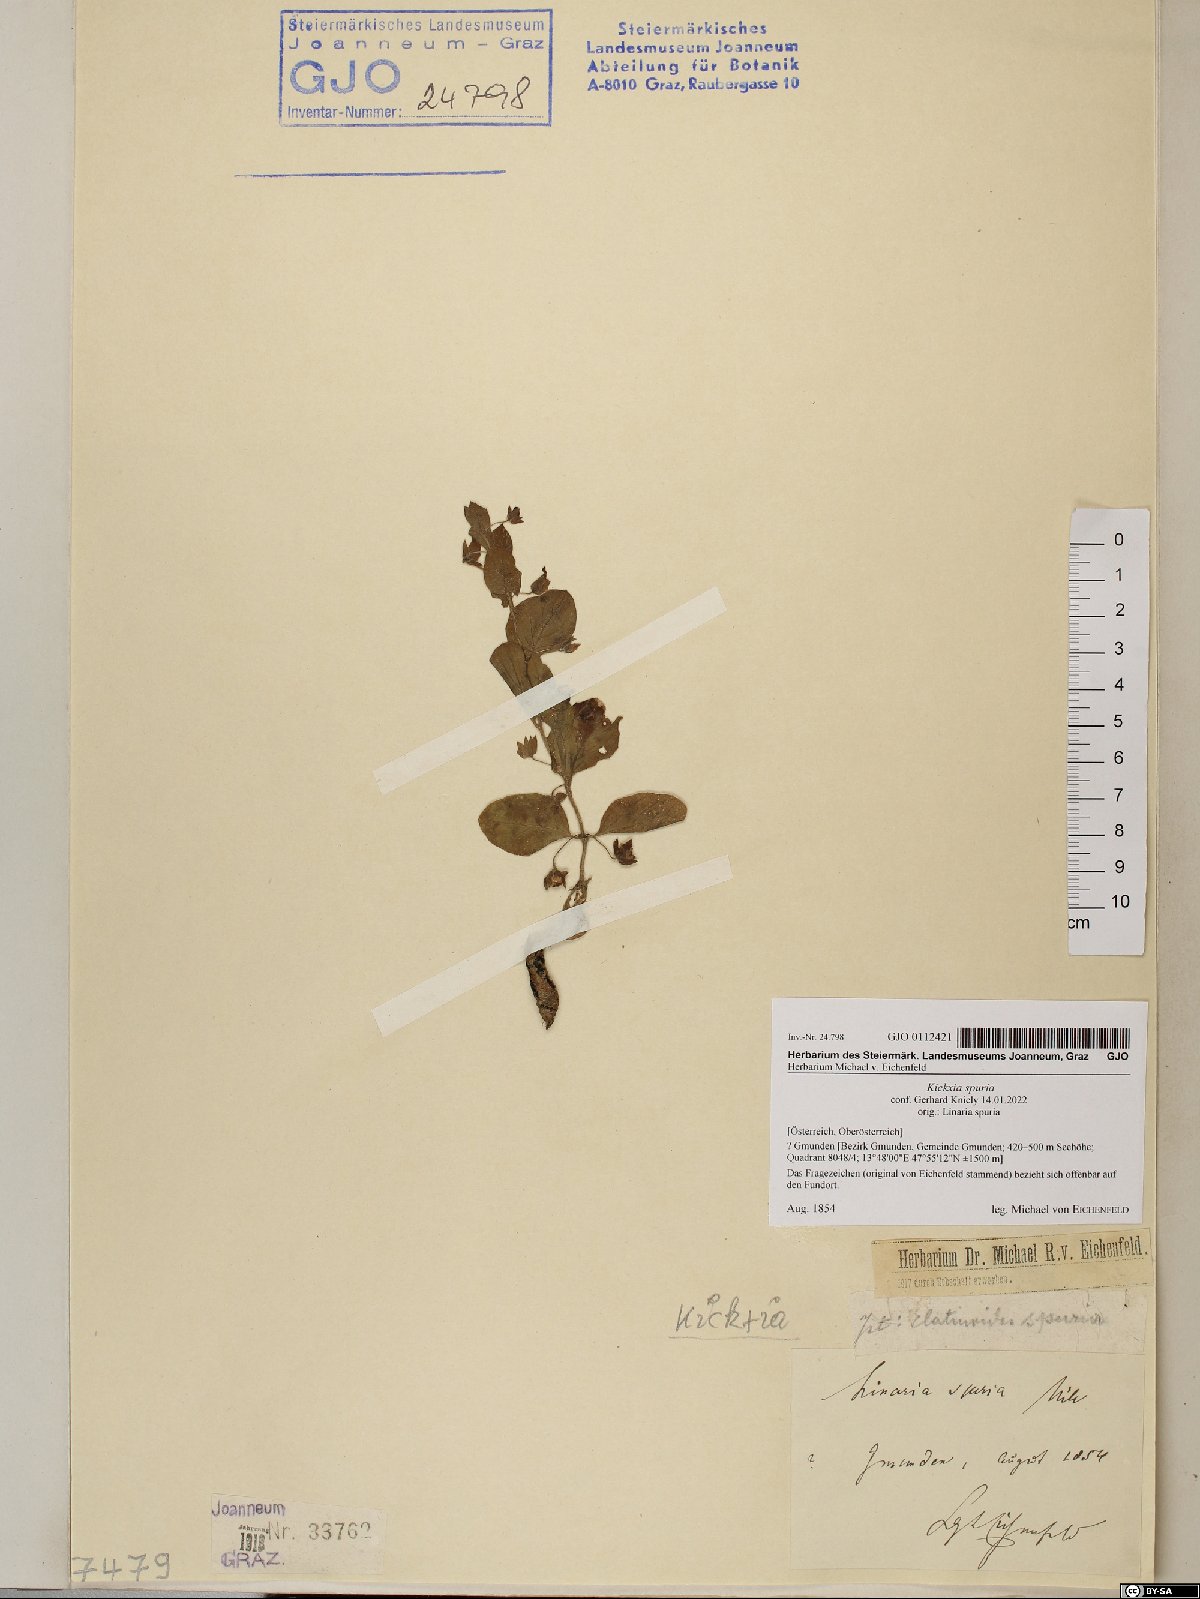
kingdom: Plantae
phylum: Tracheophyta
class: Magnoliopsida
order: Lamiales
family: Plantaginaceae
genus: Kickxia
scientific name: Kickxia spuria
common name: Round-leaved fluellen
